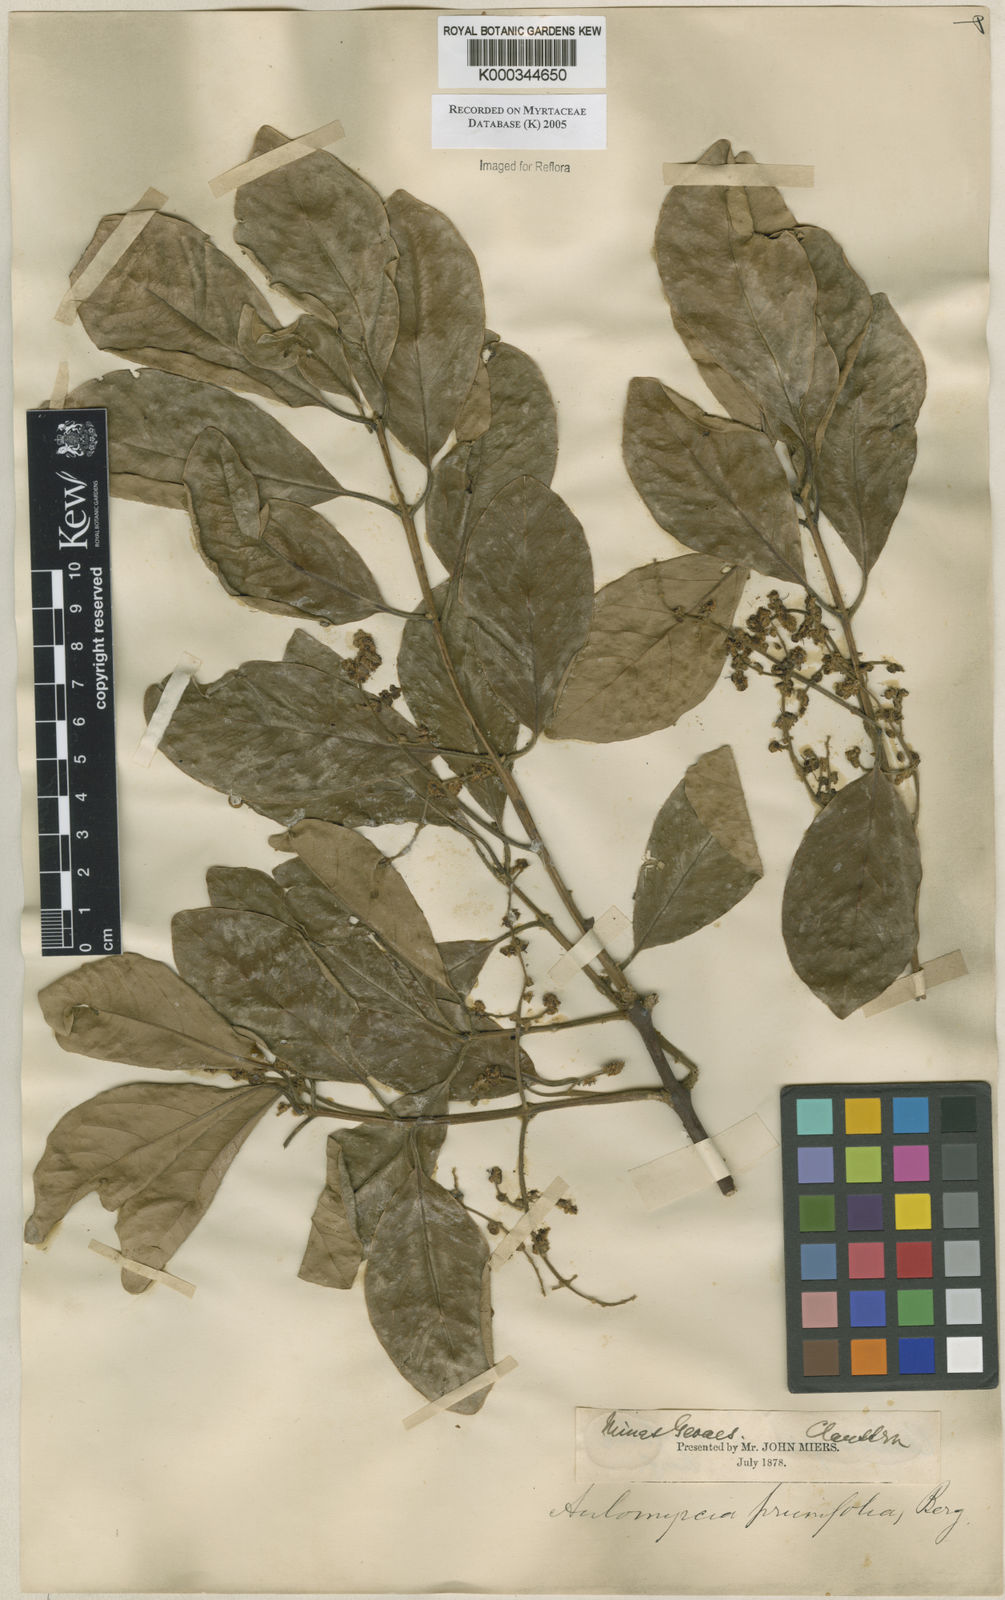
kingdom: Plantae
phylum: Tracheophyta
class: Magnoliopsida
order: Myrtales
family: Myrtaceae
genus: Myrcia
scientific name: Myrcia tomentosa
